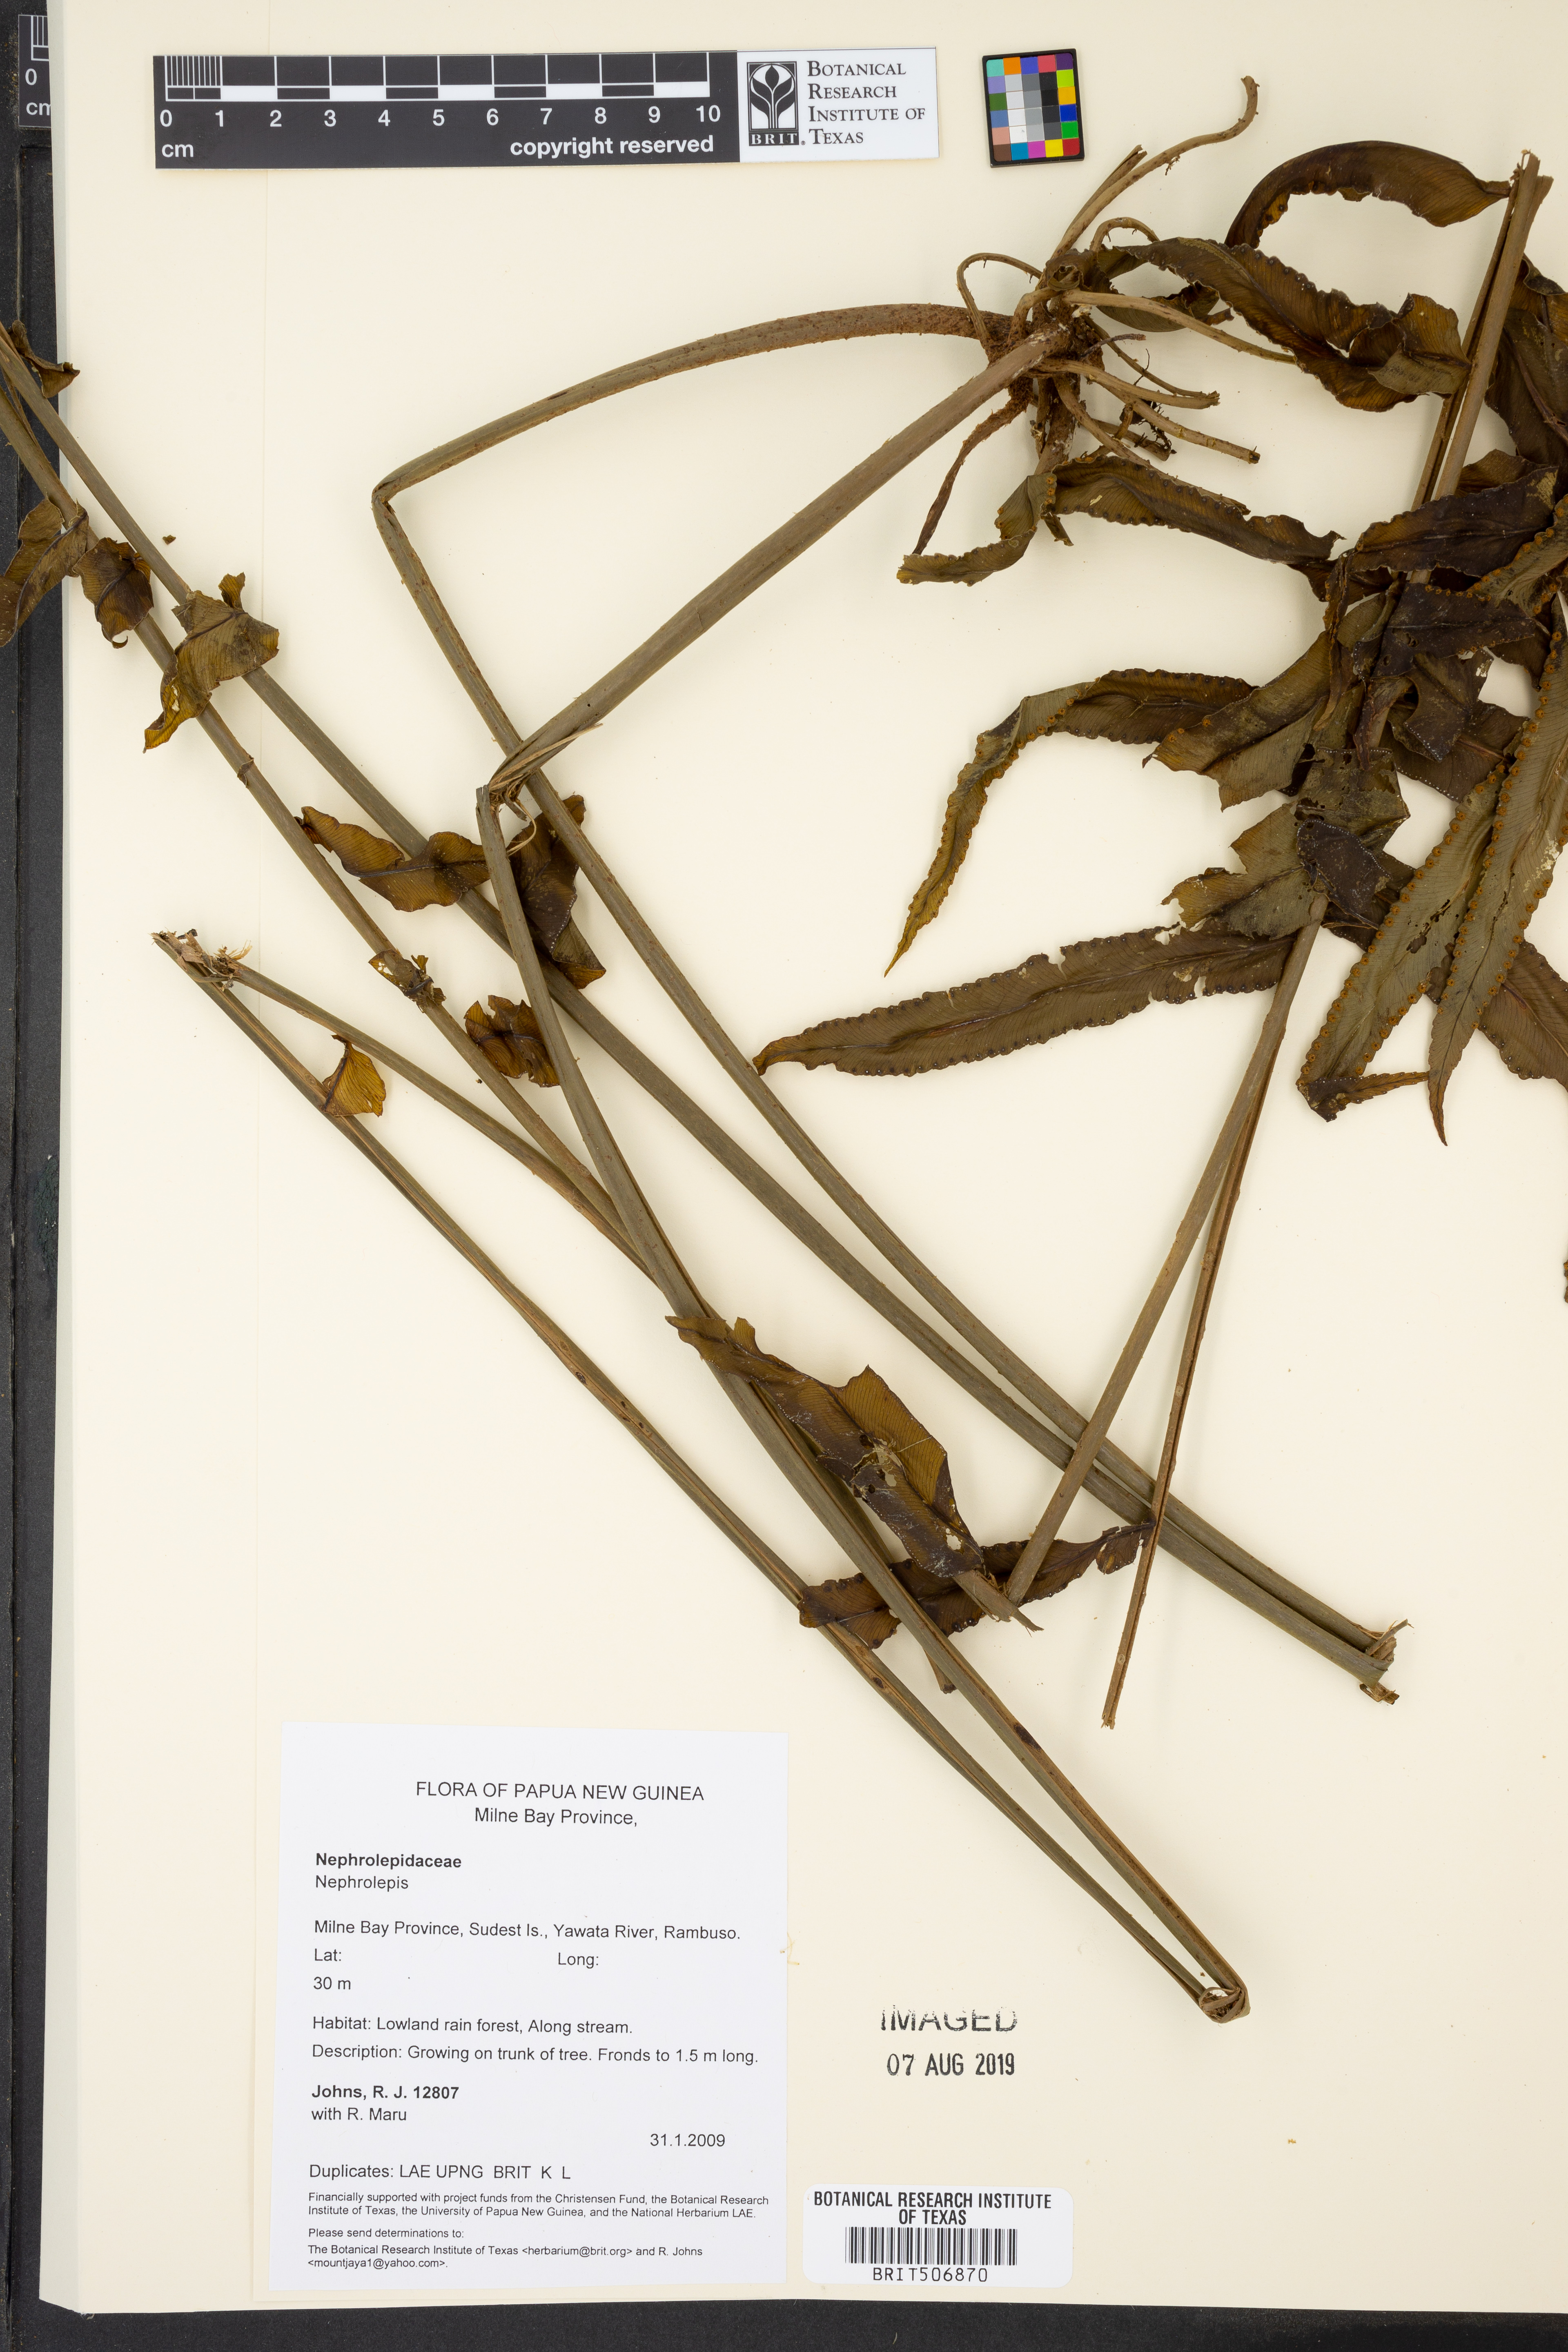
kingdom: Plantae
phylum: Tracheophyta
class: Polypodiopsida
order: Polypodiales
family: Nephrolepidaceae
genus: Nephrolepis
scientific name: Nephrolepis
